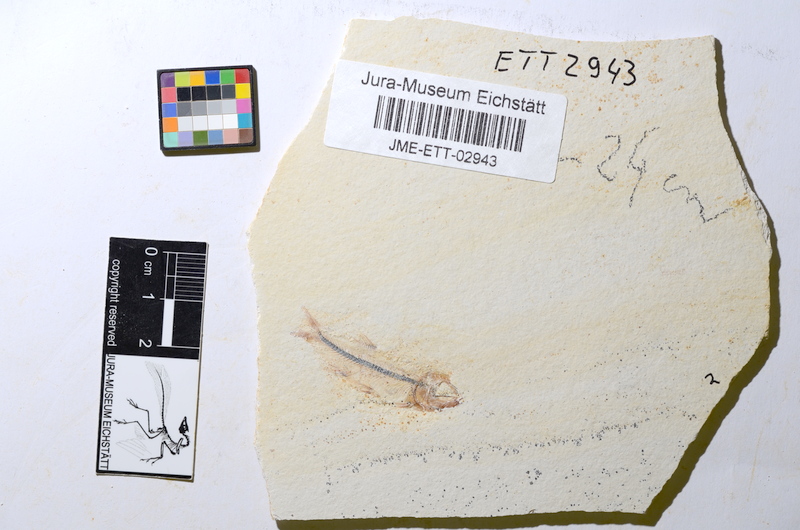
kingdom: Animalia
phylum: Chordata
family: Ascalaboidae
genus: Ebertichthys
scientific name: Ebertichthys ettlingensis
